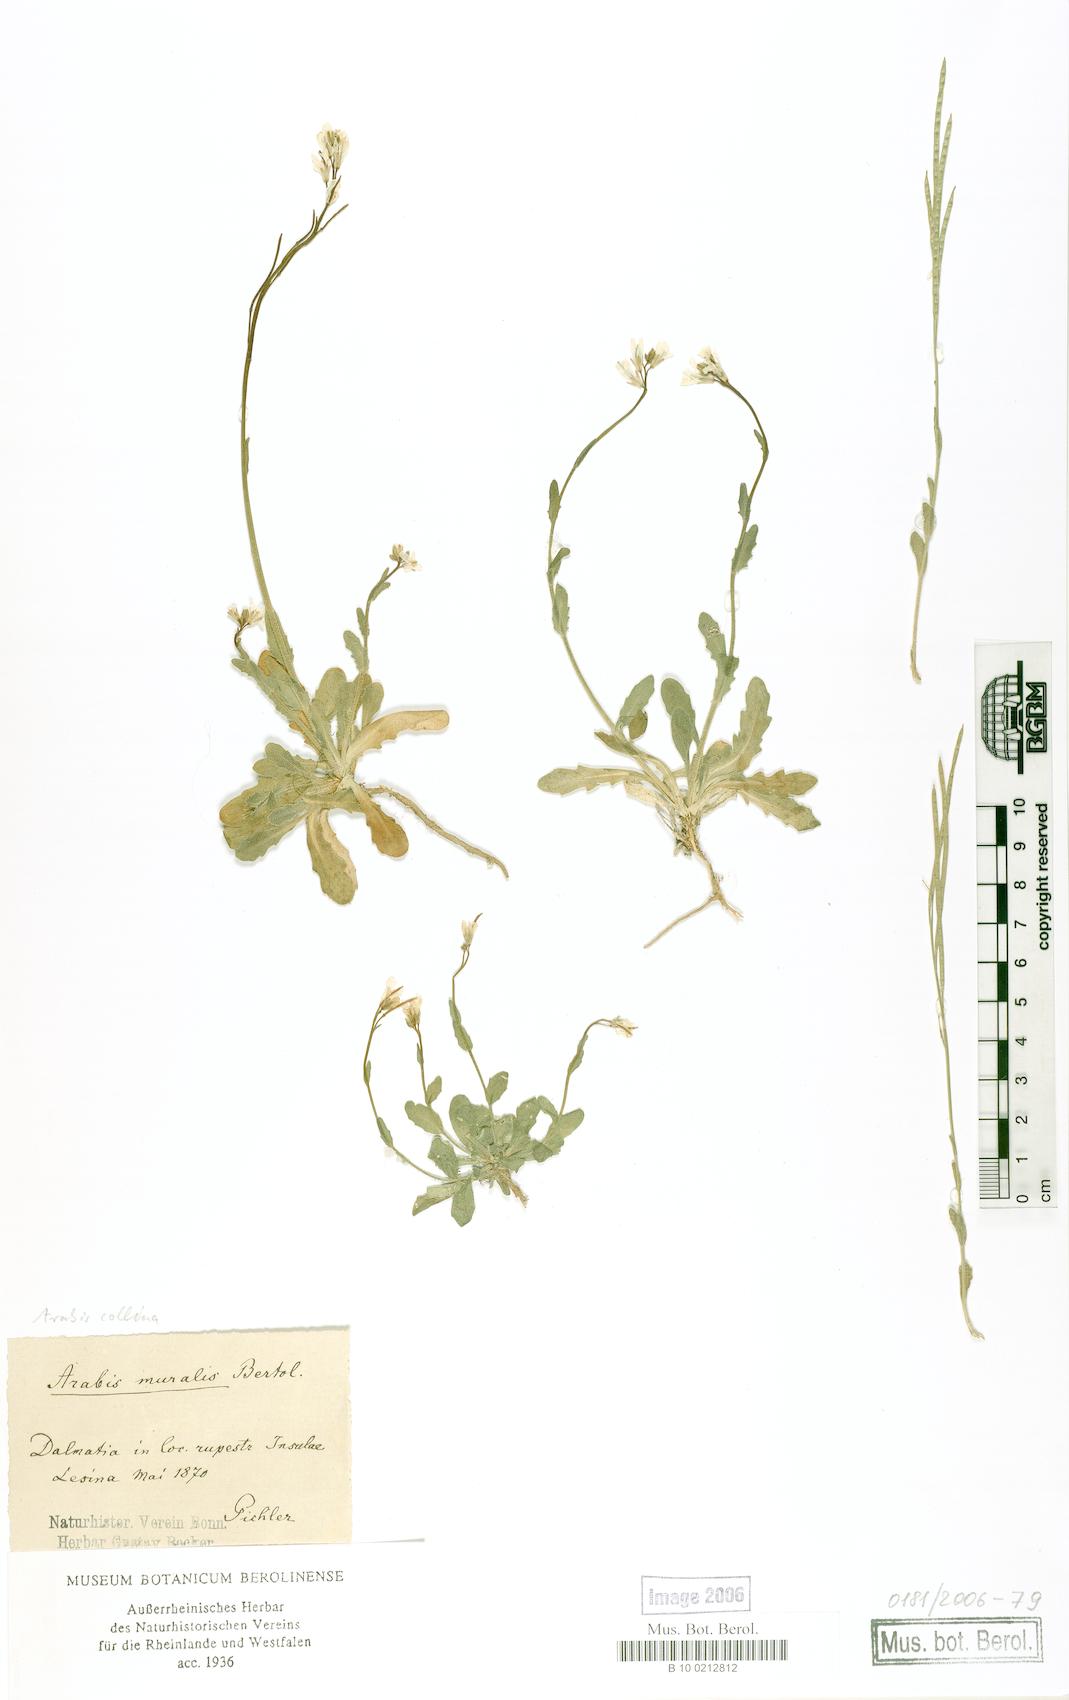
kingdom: Plantae
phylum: Tracheophyta
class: Magnoliopsida
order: Brassicales
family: Brassicaceae
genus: Arabis
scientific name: Arabis collina
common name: Rosy cress
